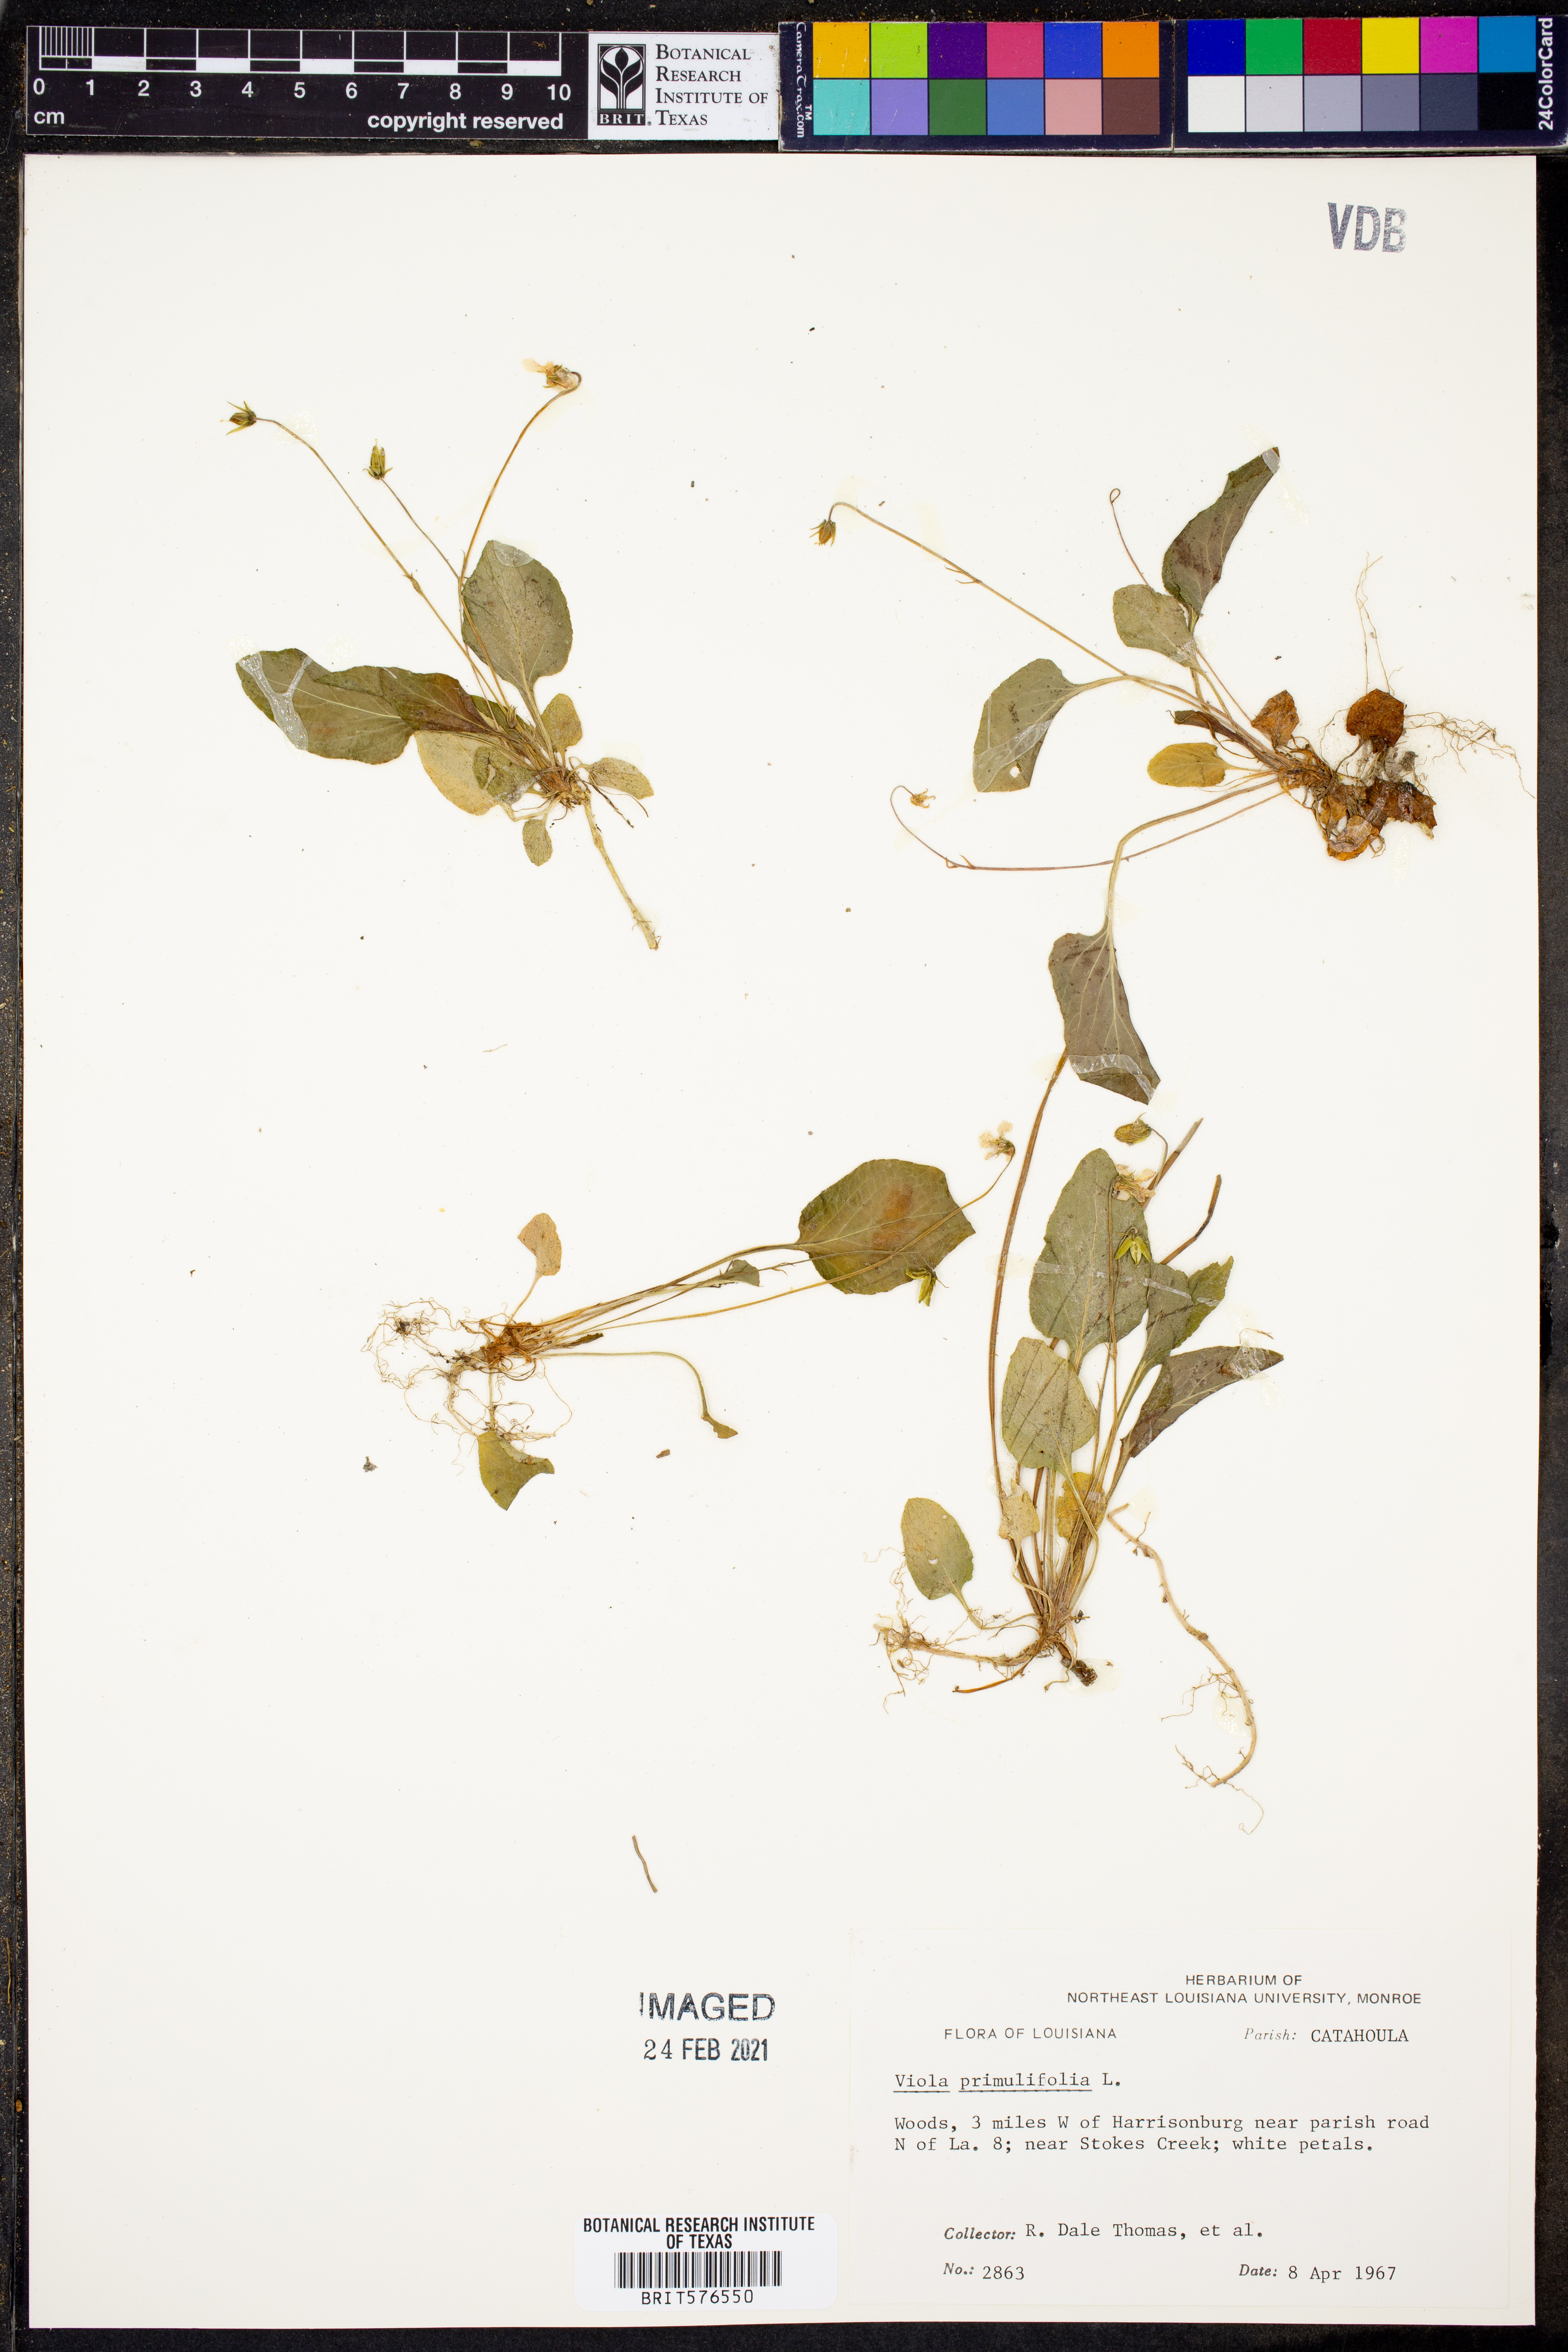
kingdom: Plantae
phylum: Tracheophyta
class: Magnoliopsida
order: Malpighiales
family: Violaceae
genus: Viola
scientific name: Viola primulifolia
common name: Primrose-leaf violet
